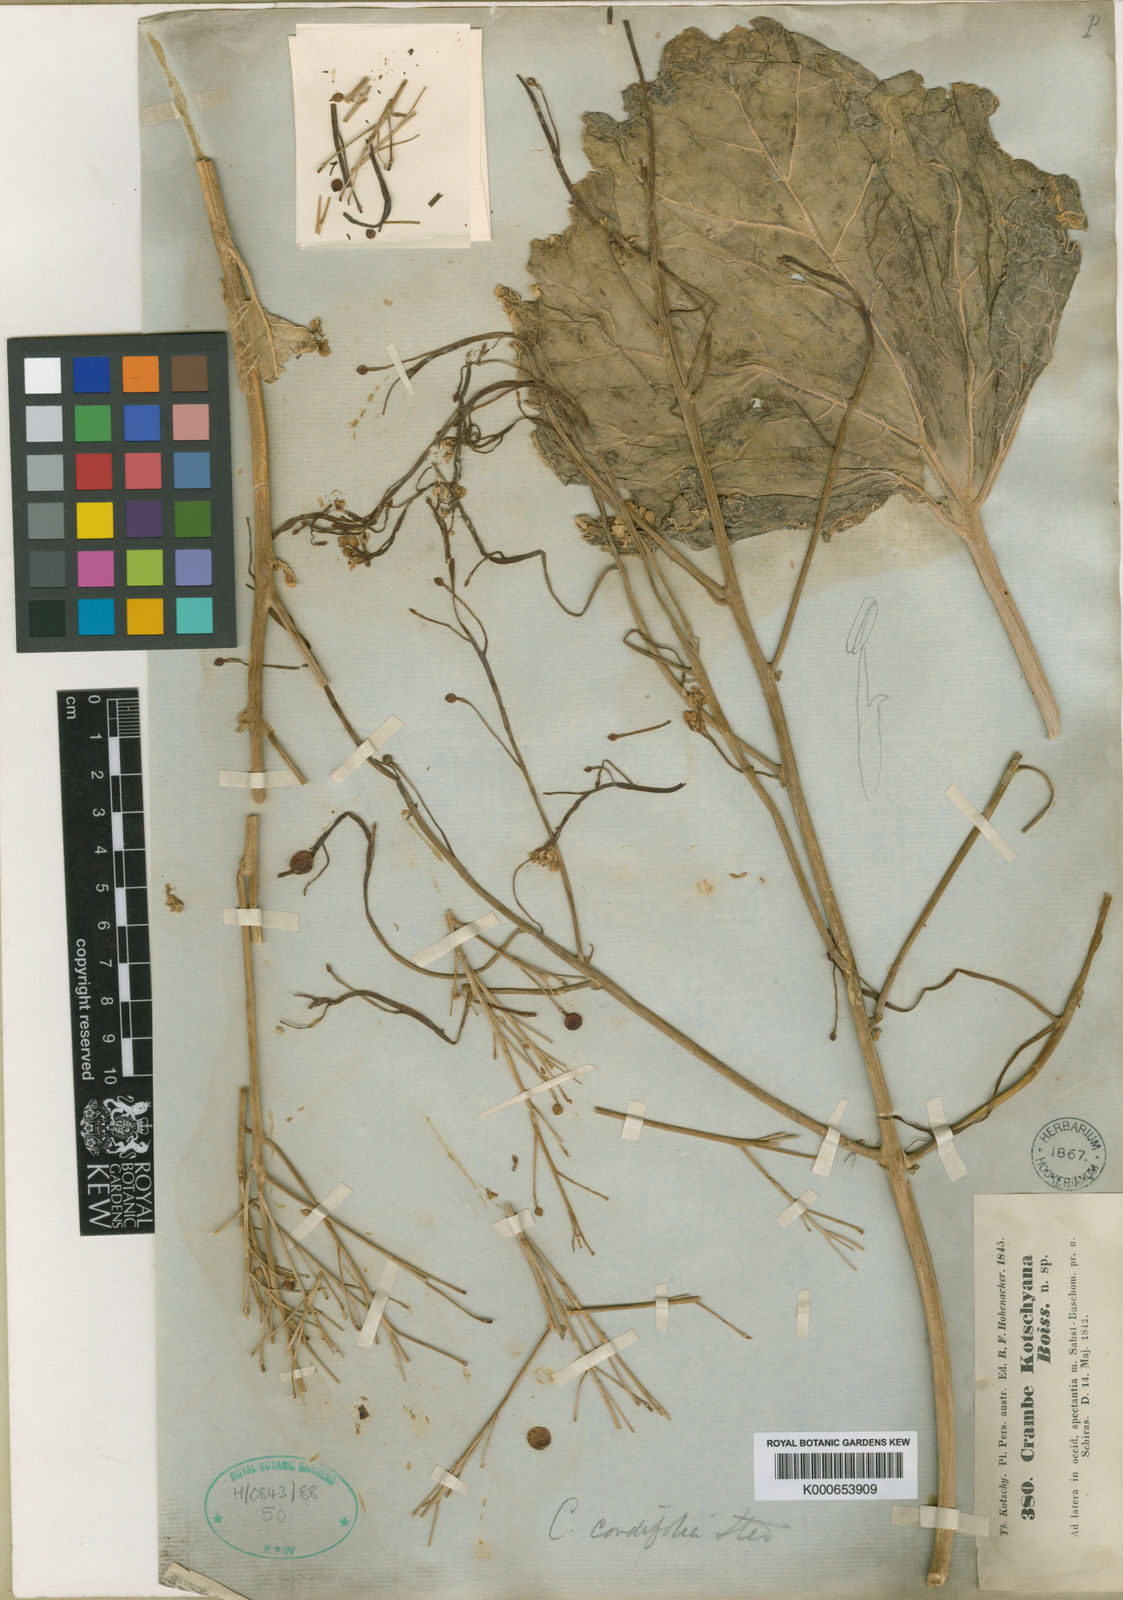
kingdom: Plantae
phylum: Tracheophyta
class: Magnoliopsida
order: Brassicales
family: Brassicaceae
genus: Crambe
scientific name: Crambe kotschyana
